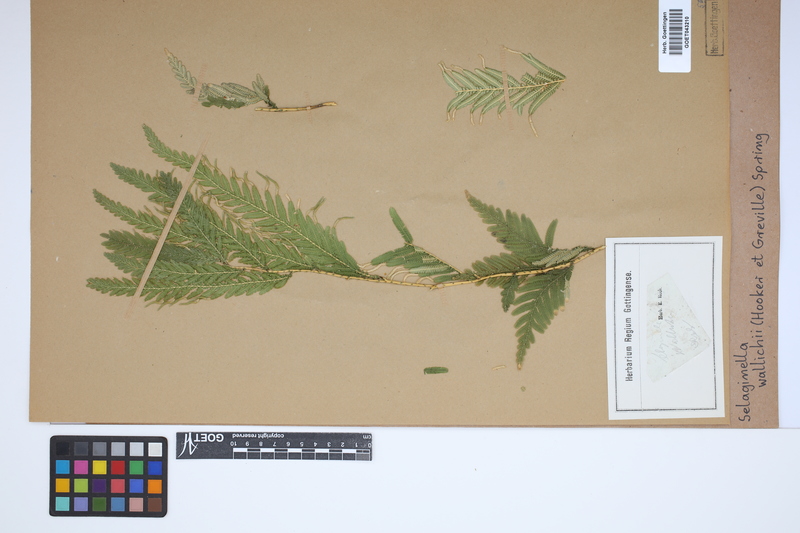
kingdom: Plantae
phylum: Tracheophyta
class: Lycopodiopsida
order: Selaginellales
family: Selaginellaceae
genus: Selaginella
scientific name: Selaginella wallichii
